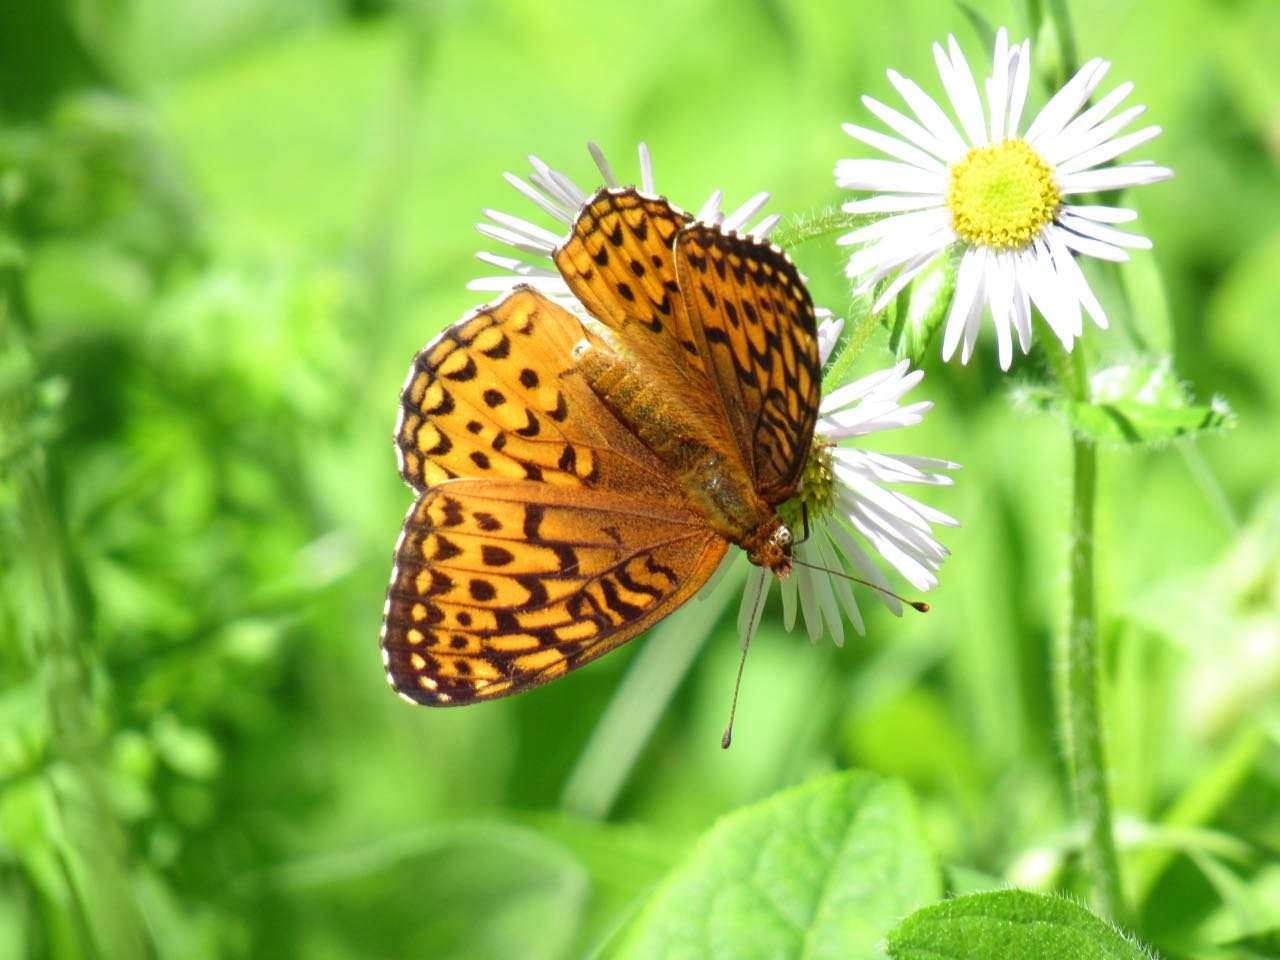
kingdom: Animalia
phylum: Arthropoda
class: Insecta
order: Lepidoptera
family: Nymphalidae
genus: Speyeria
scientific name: Speyeria atlantis
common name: Atlantis Fritillary
